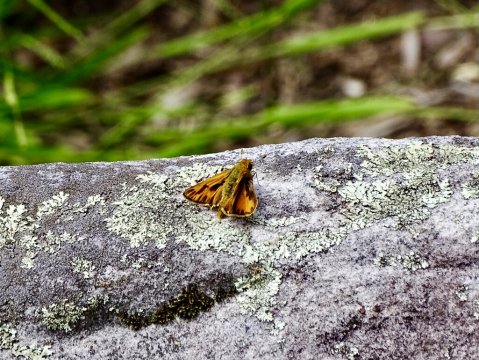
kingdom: Animalia
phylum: Arthropoda
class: Insecta
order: Lepidoptera
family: Hesperiidae
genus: Hylephila
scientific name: Hylephila phyleus
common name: Fiery Skipper
